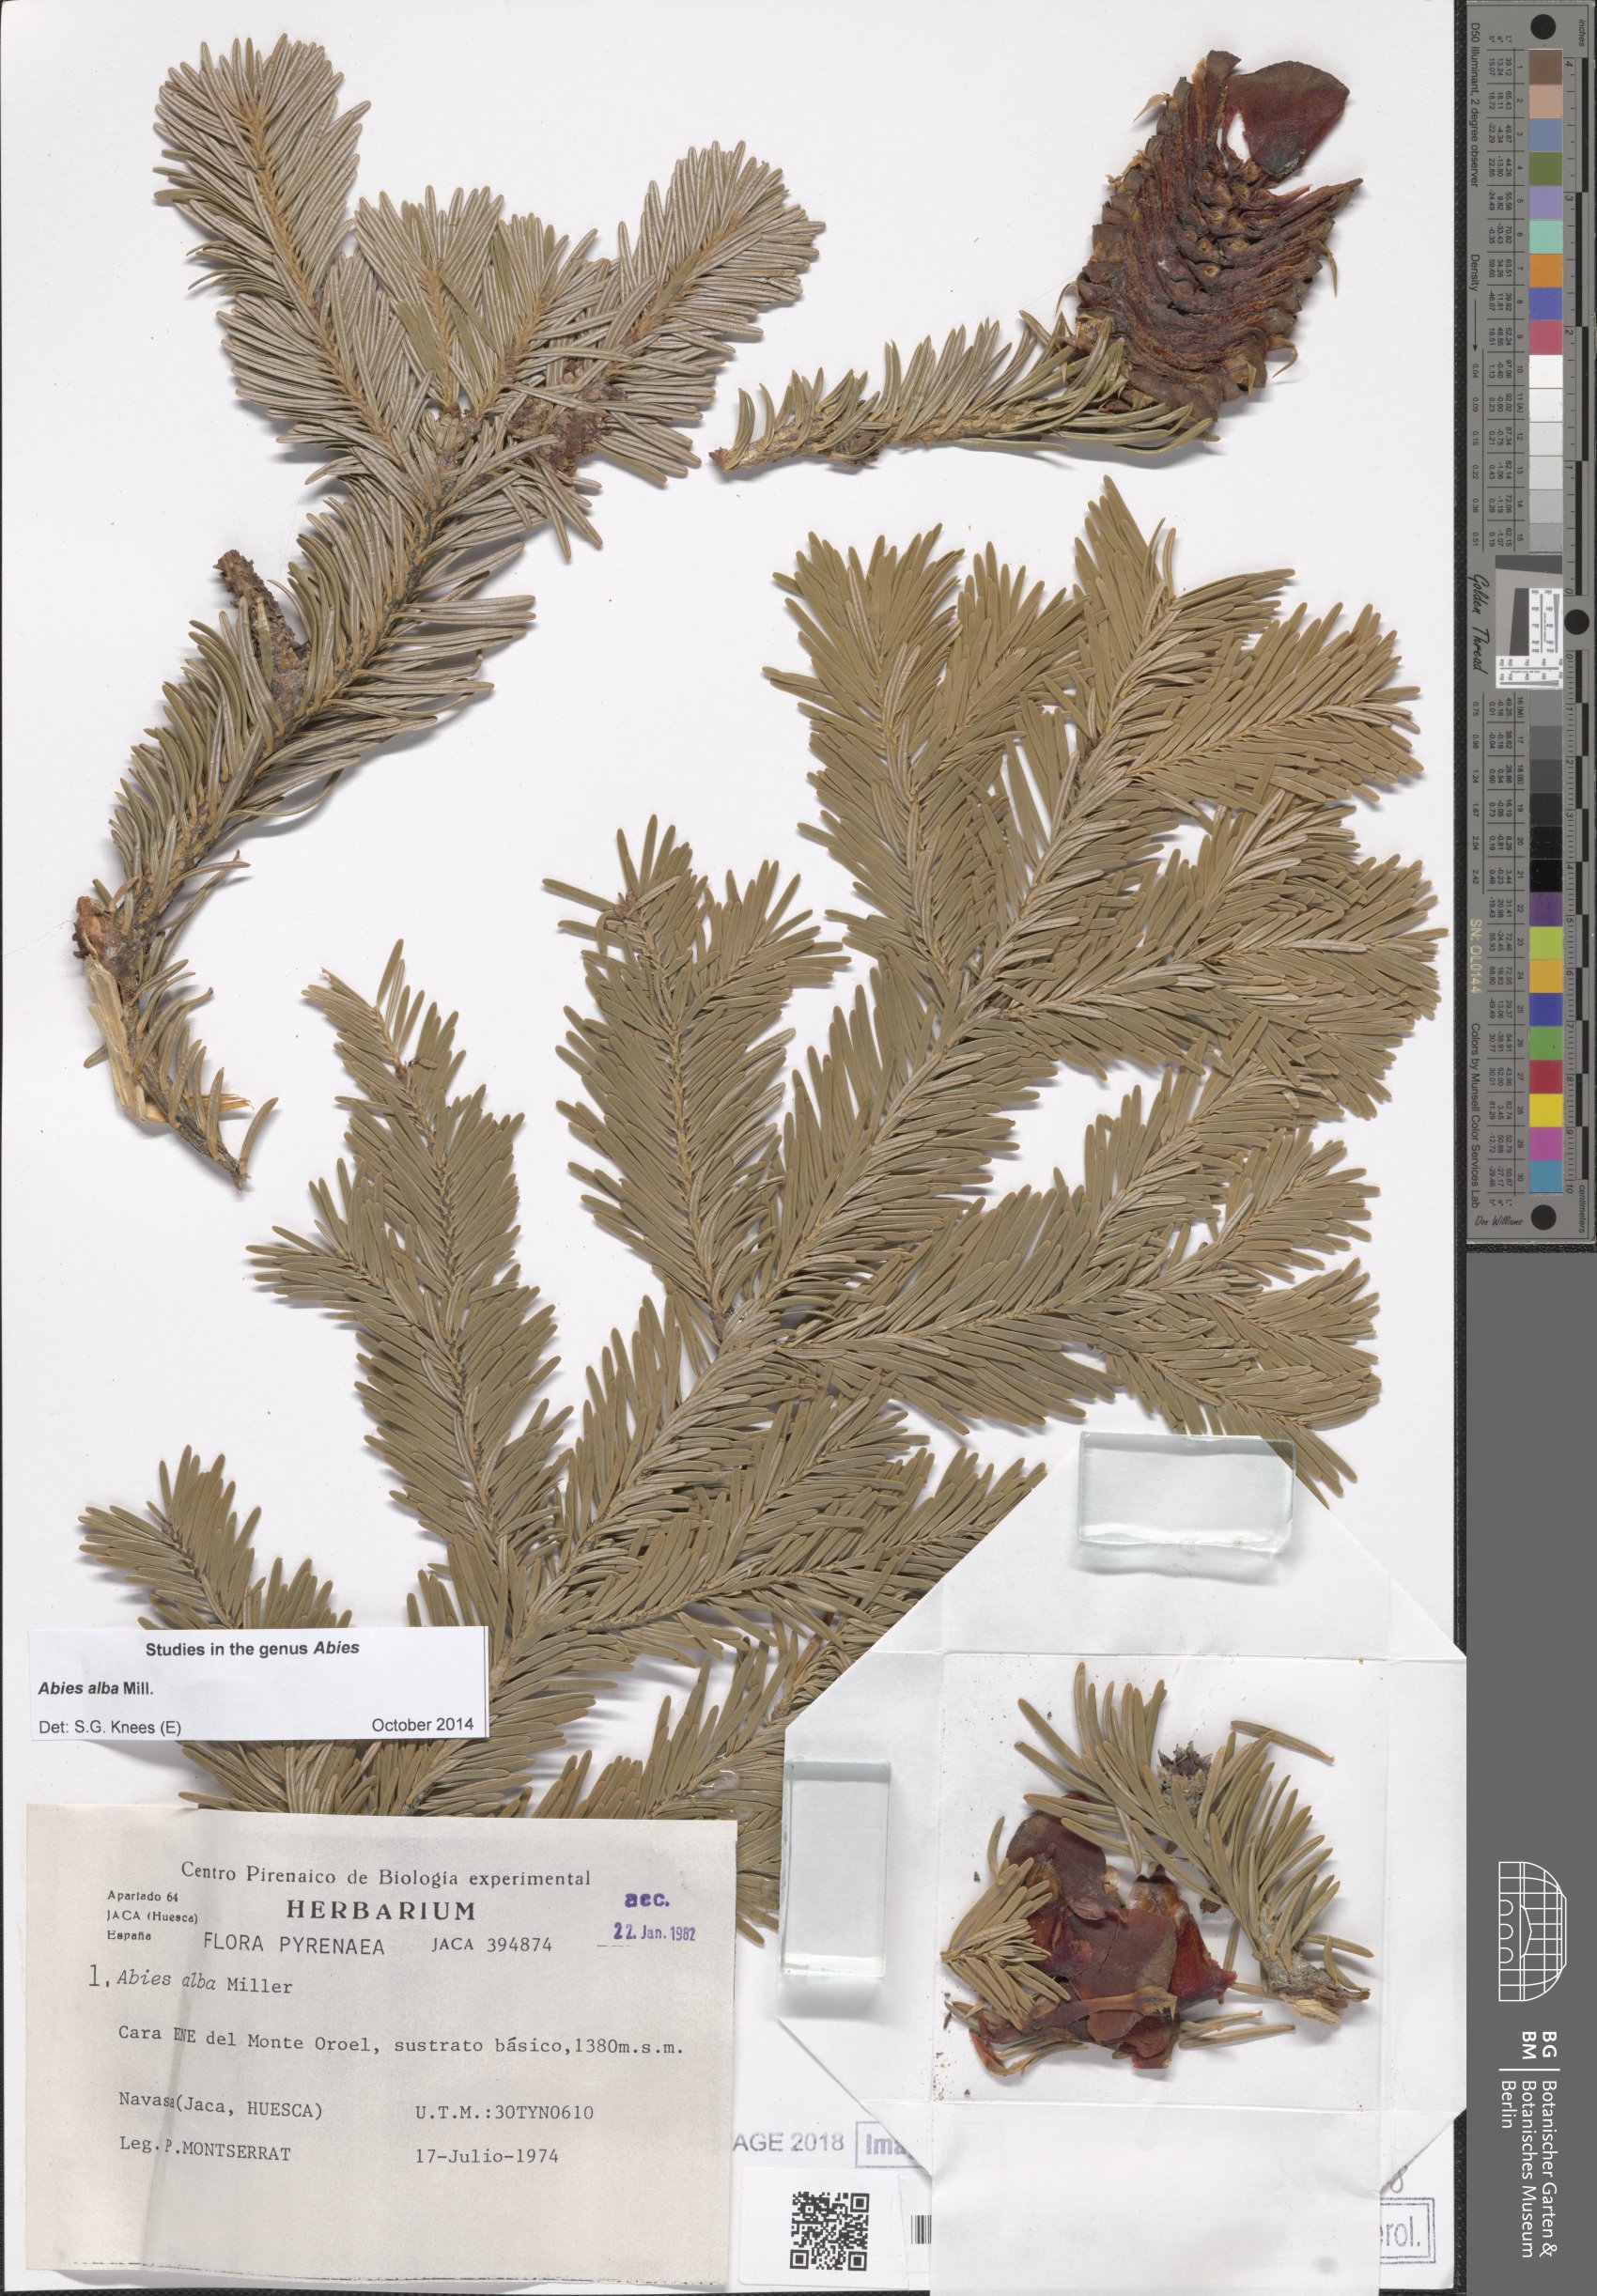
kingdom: Plantae
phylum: Tracheophyta
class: Pinopsida
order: Pinales
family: Pinaceae
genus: Abies
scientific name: Abies alba
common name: Silver fir
